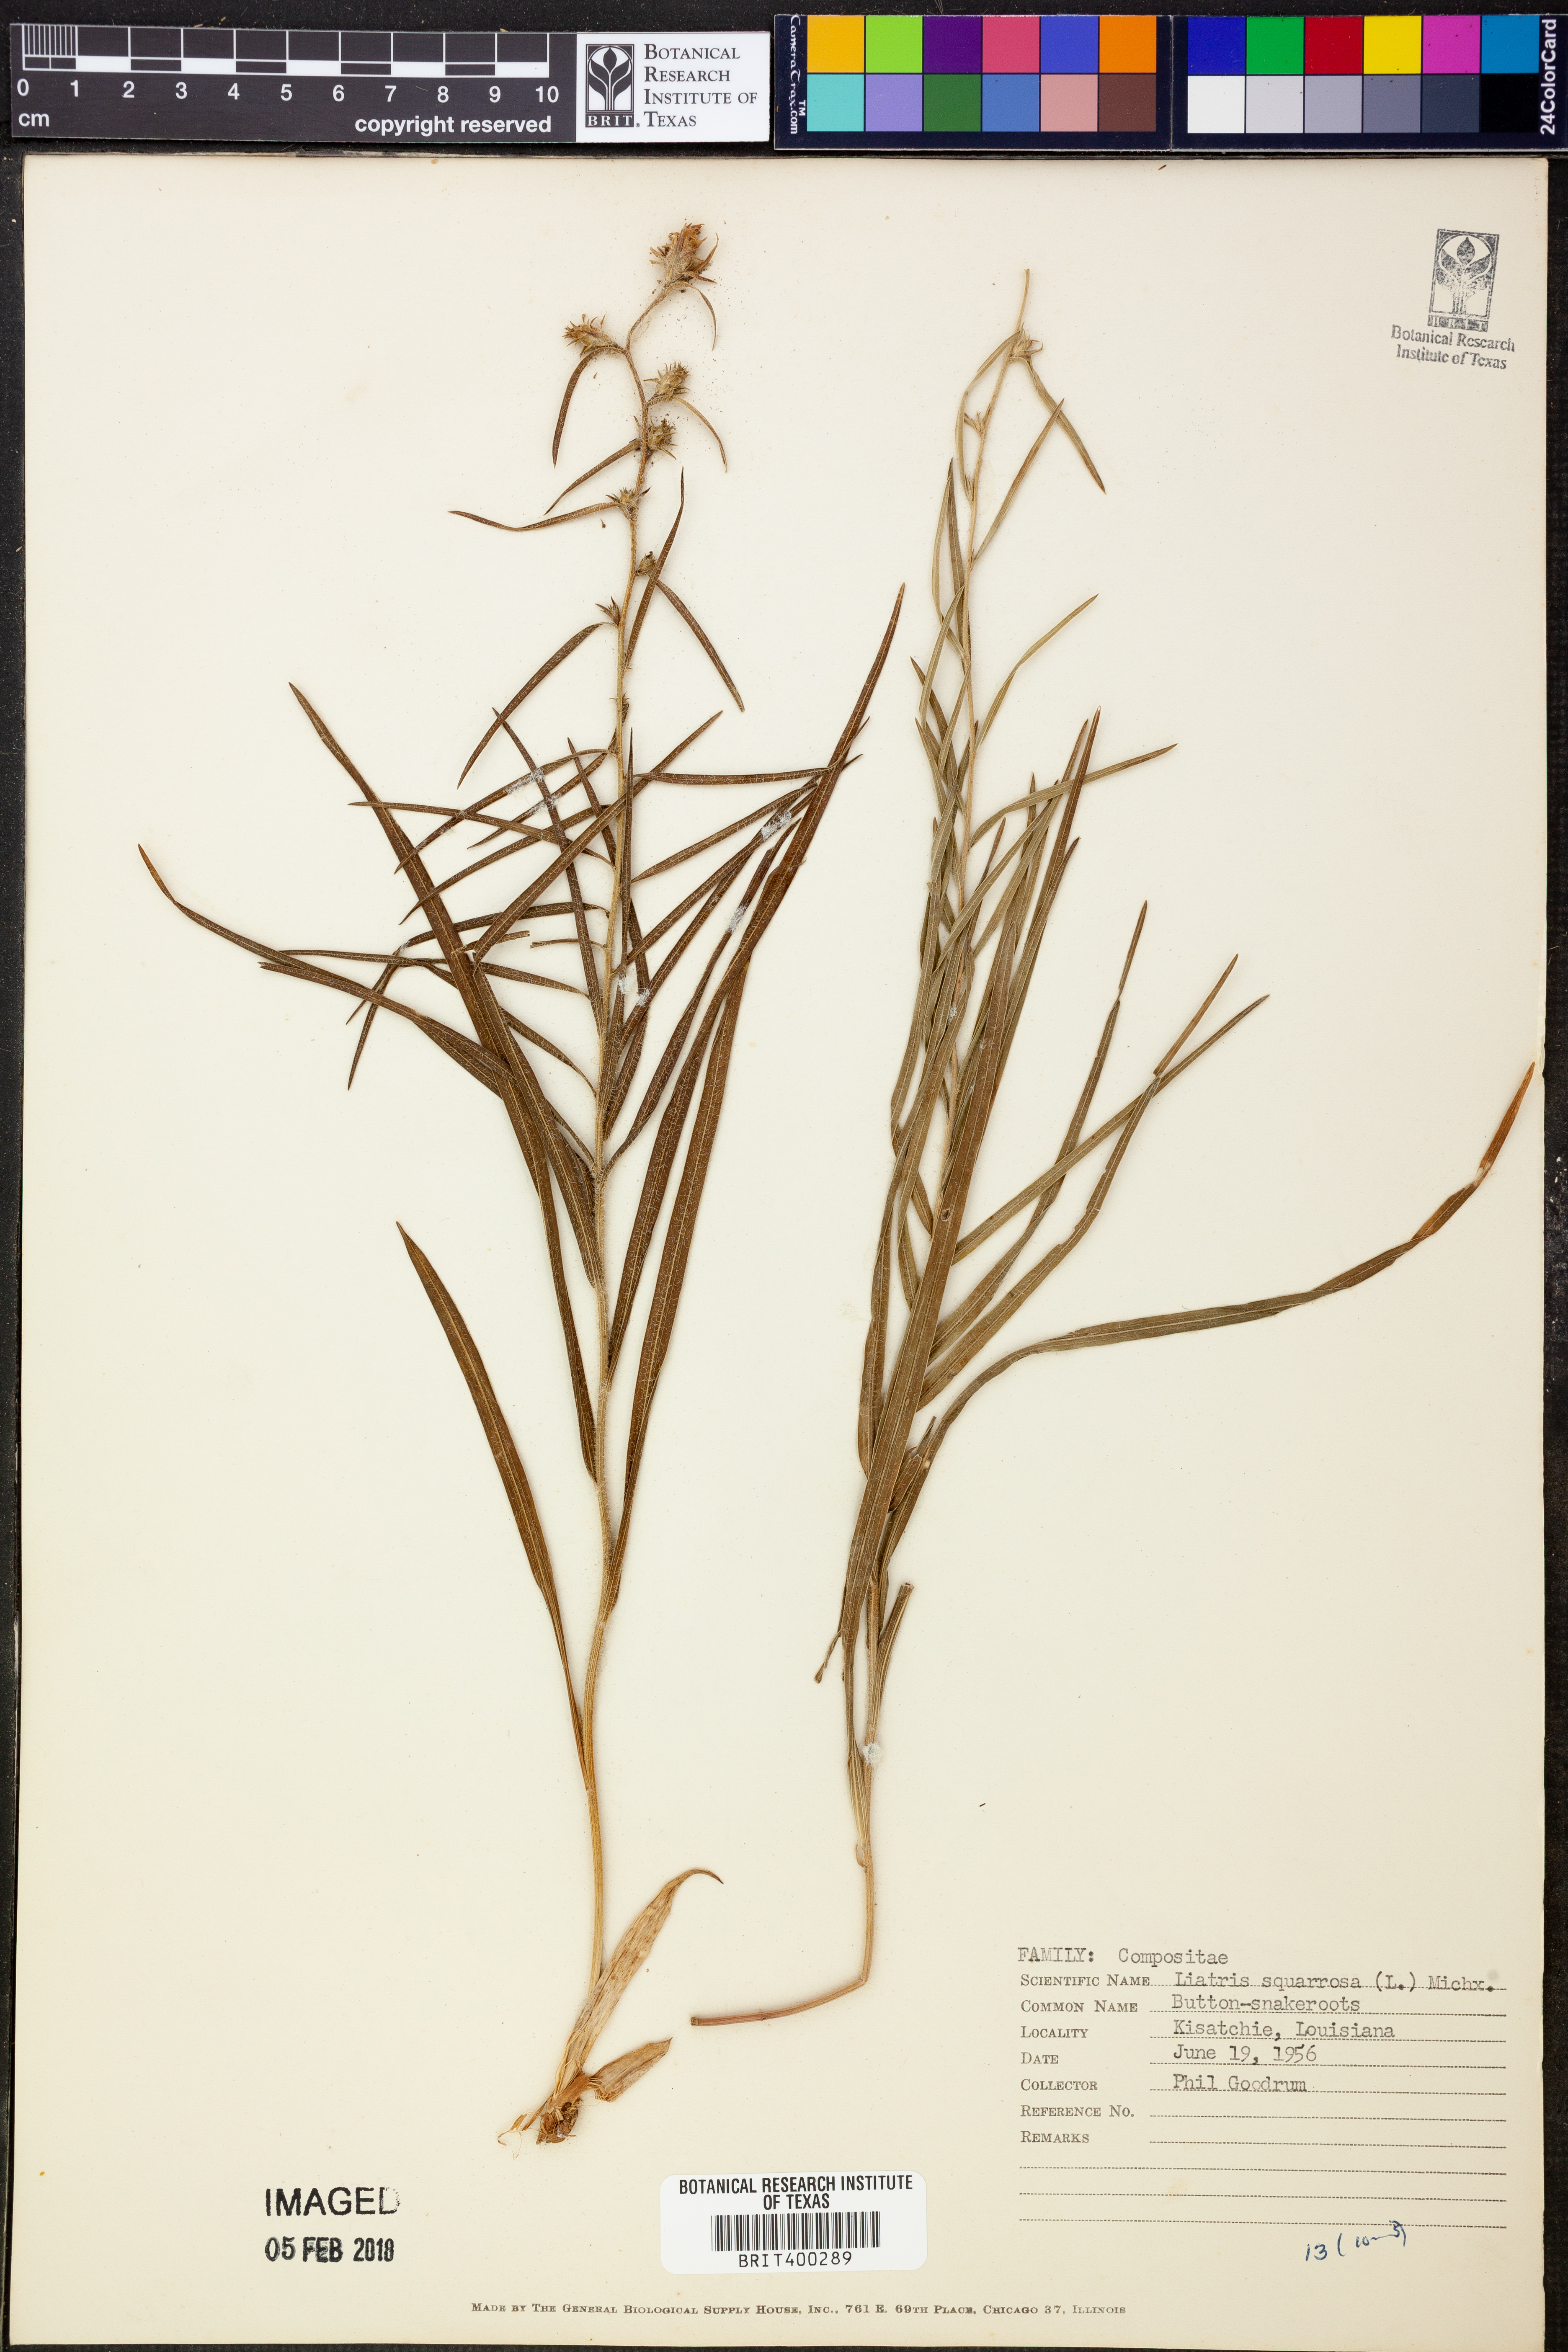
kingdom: Plantae
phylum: Tracheophyta
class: Magnoliopsida
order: Asterales
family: Asteraceae
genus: Liatris
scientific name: Liatris squarrosa
